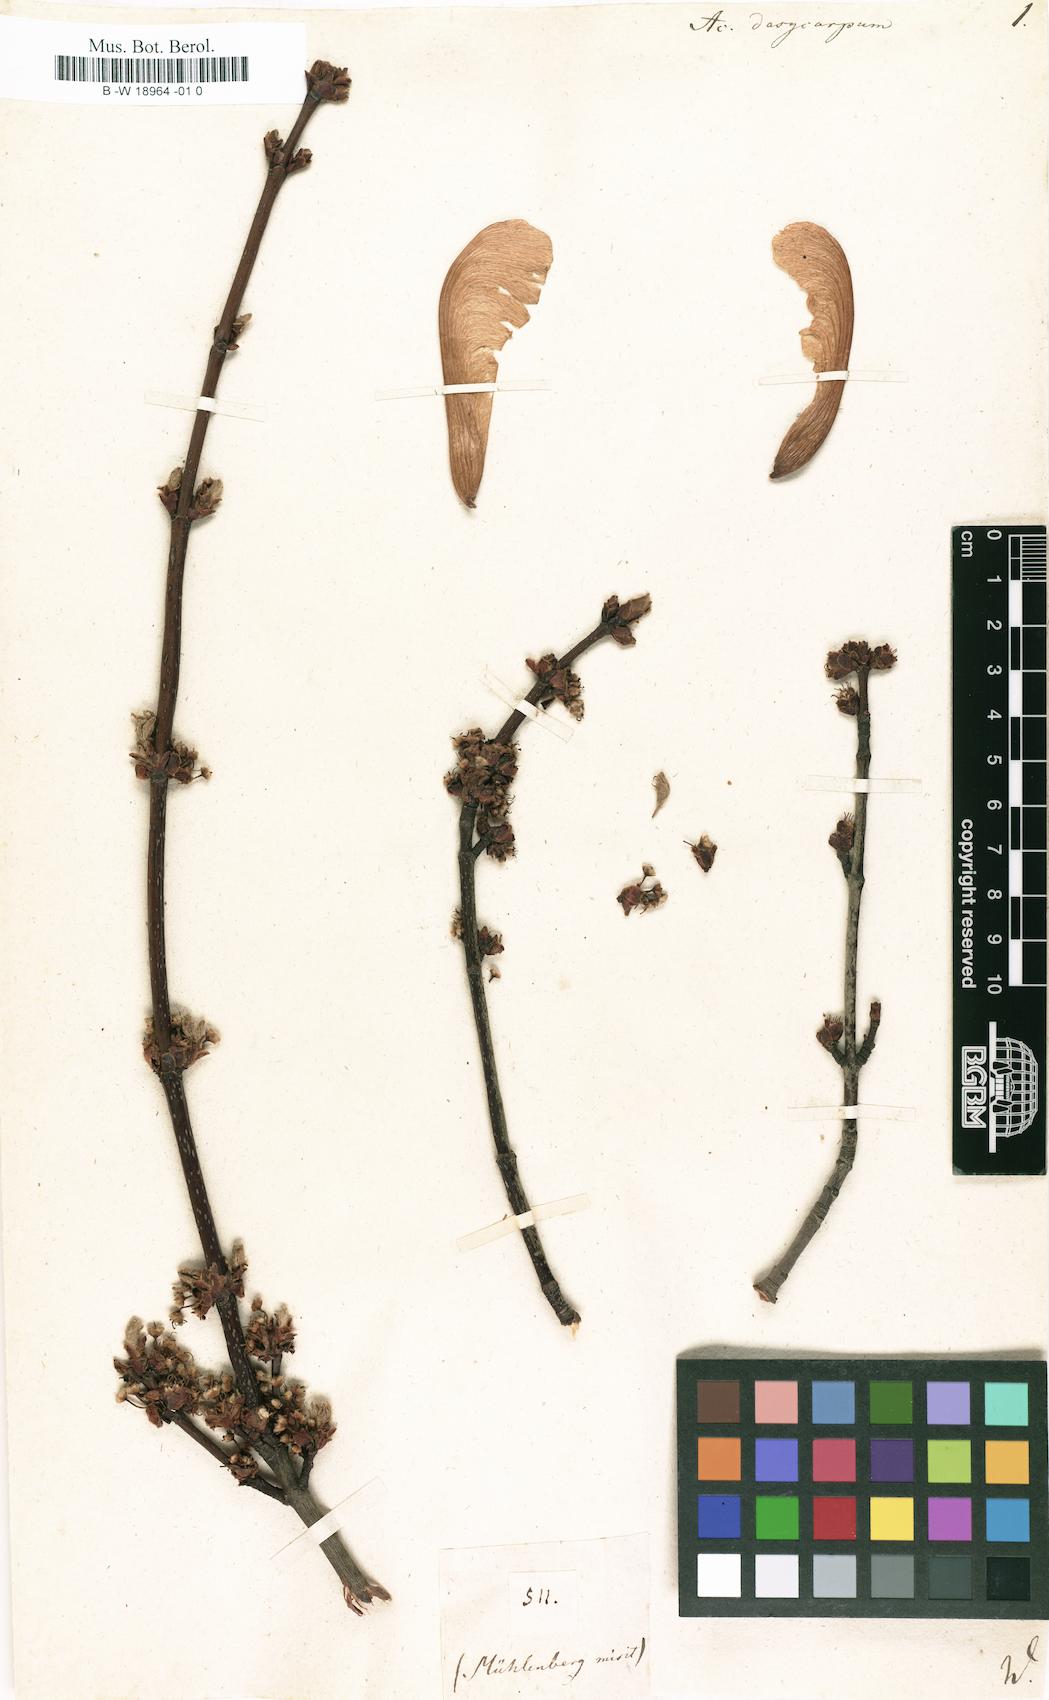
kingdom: Plantae
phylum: Tracheophyta
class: Magnoliopsida
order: Sapindales
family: Sapindaceae
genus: Acer
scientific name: Acer saccharinum
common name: Silver maple
